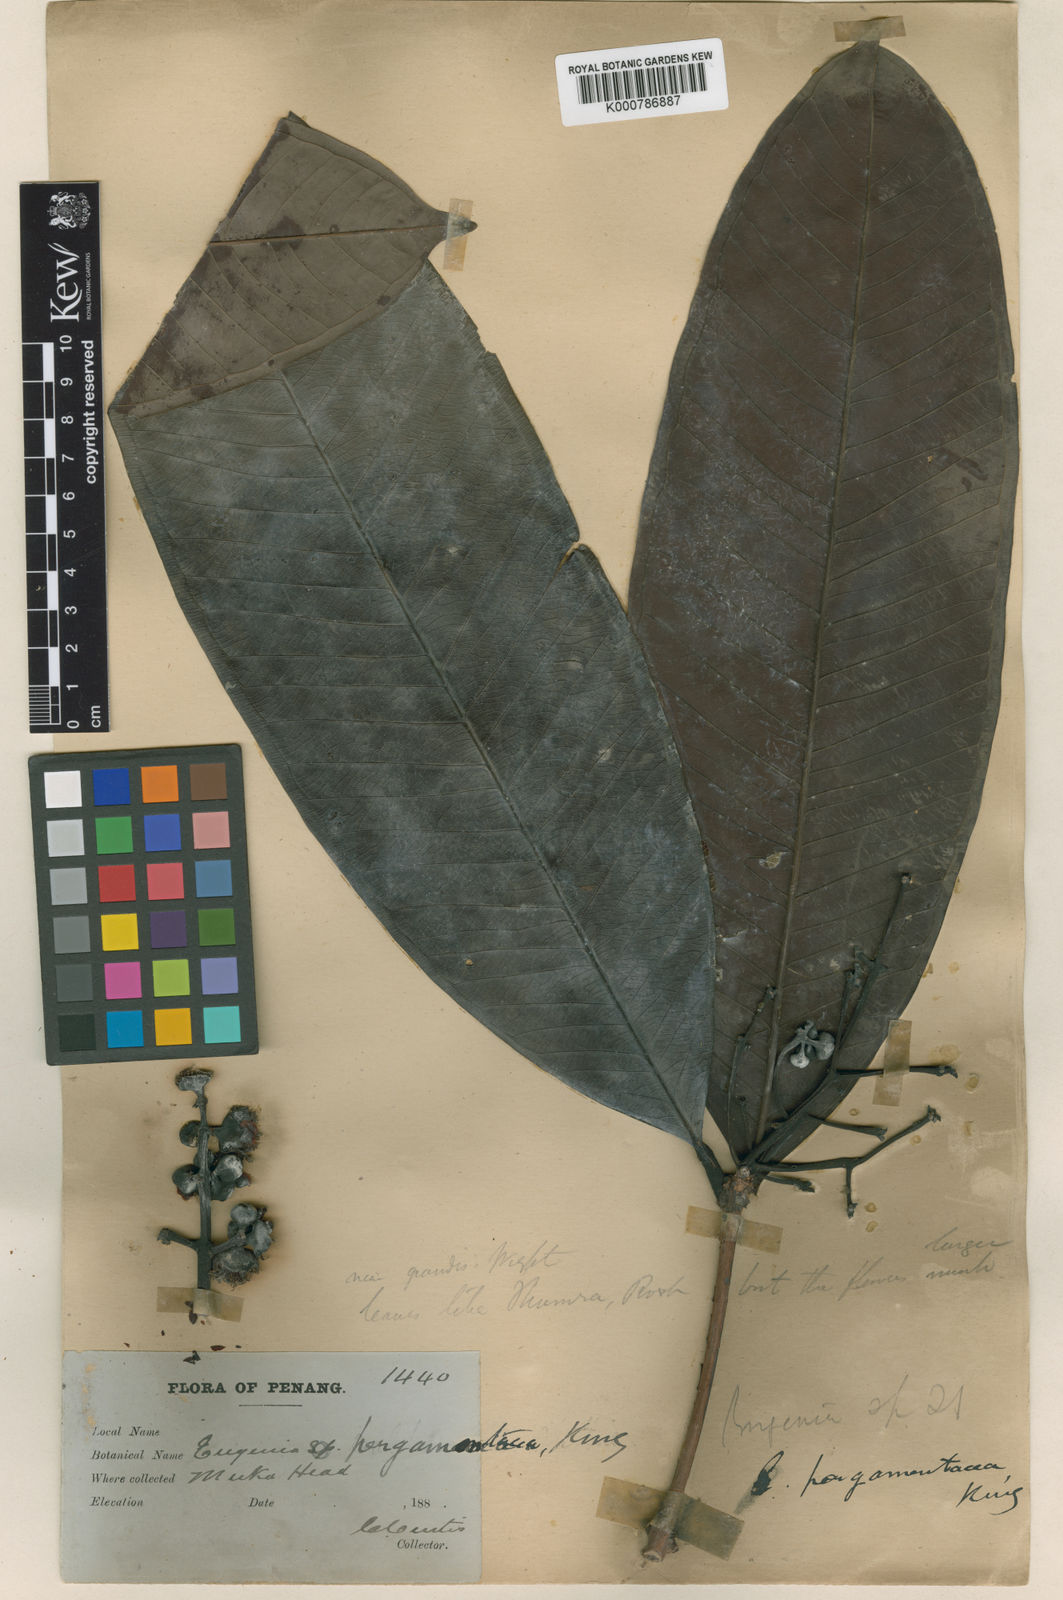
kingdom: Plantae
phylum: Tracheophyta
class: Magnoliopsida
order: Myrtales
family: Myrtaceae
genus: Syzygium
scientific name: Syzygium pergamentaceum
